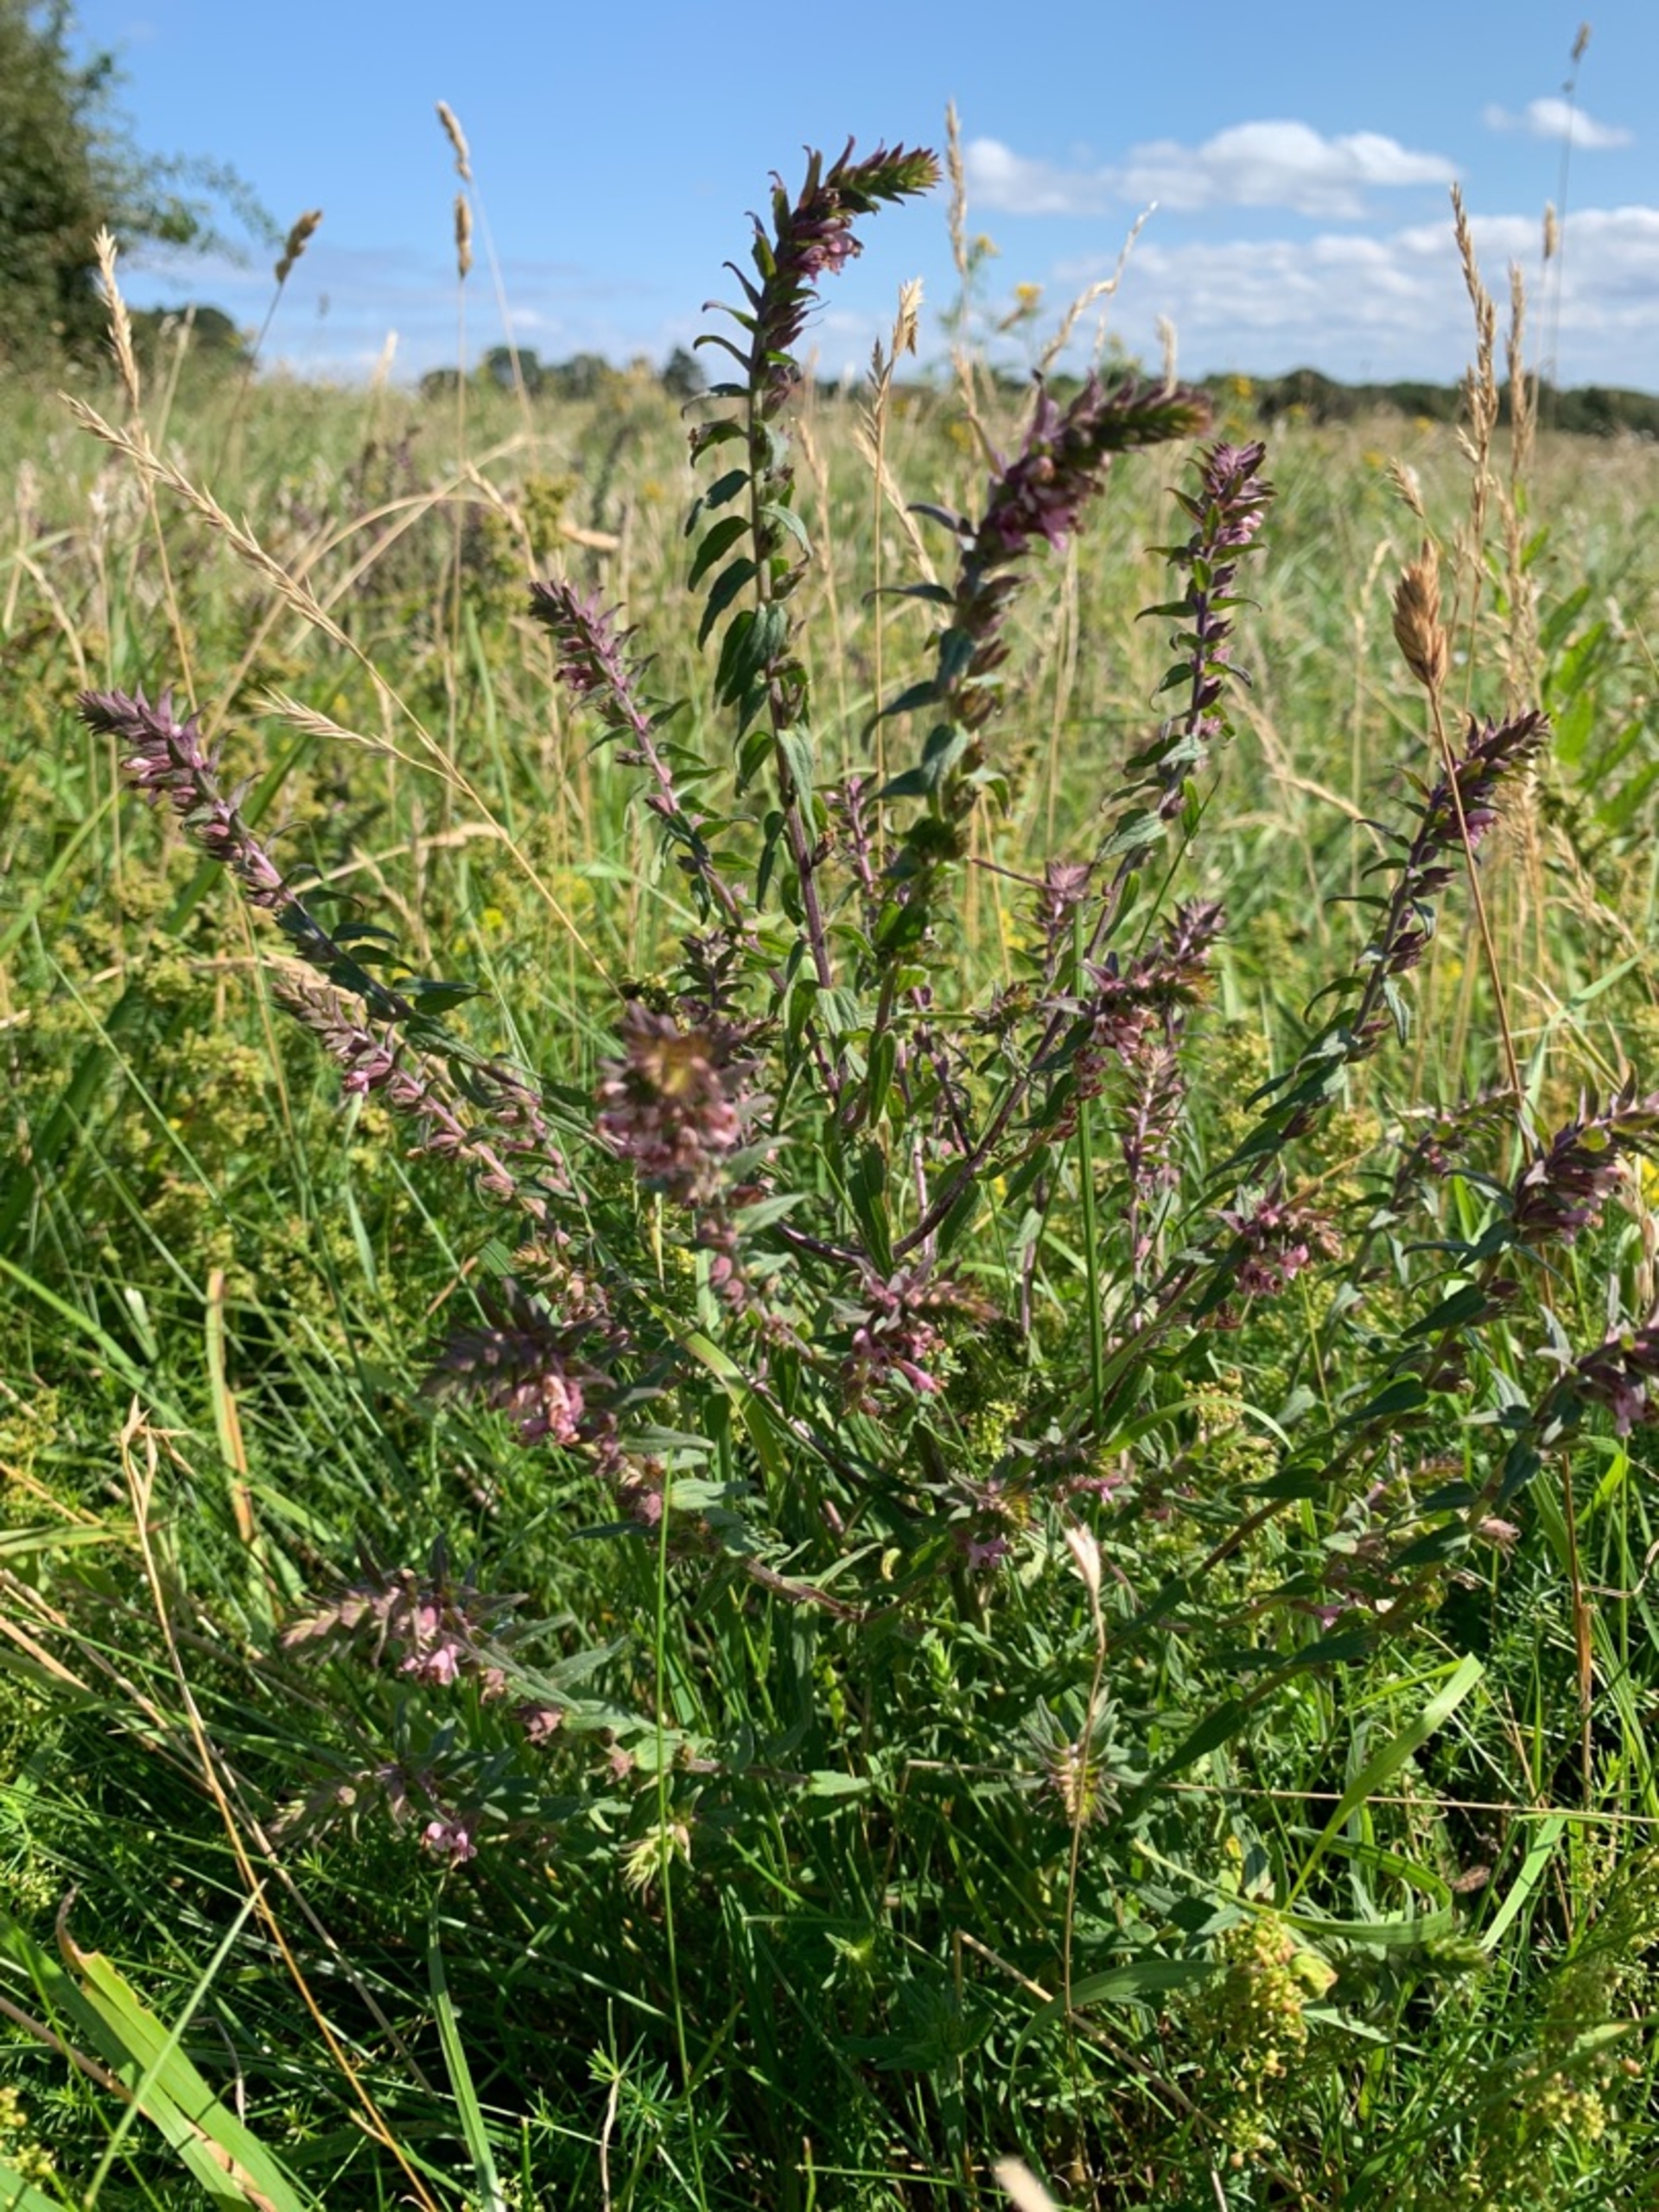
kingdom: Plantae
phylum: Tracheophyta
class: Magnoliopsida
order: Lamiales
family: Orobanchaceae
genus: Odontites
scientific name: Odontites vulgaris
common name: Høst-rødtop
